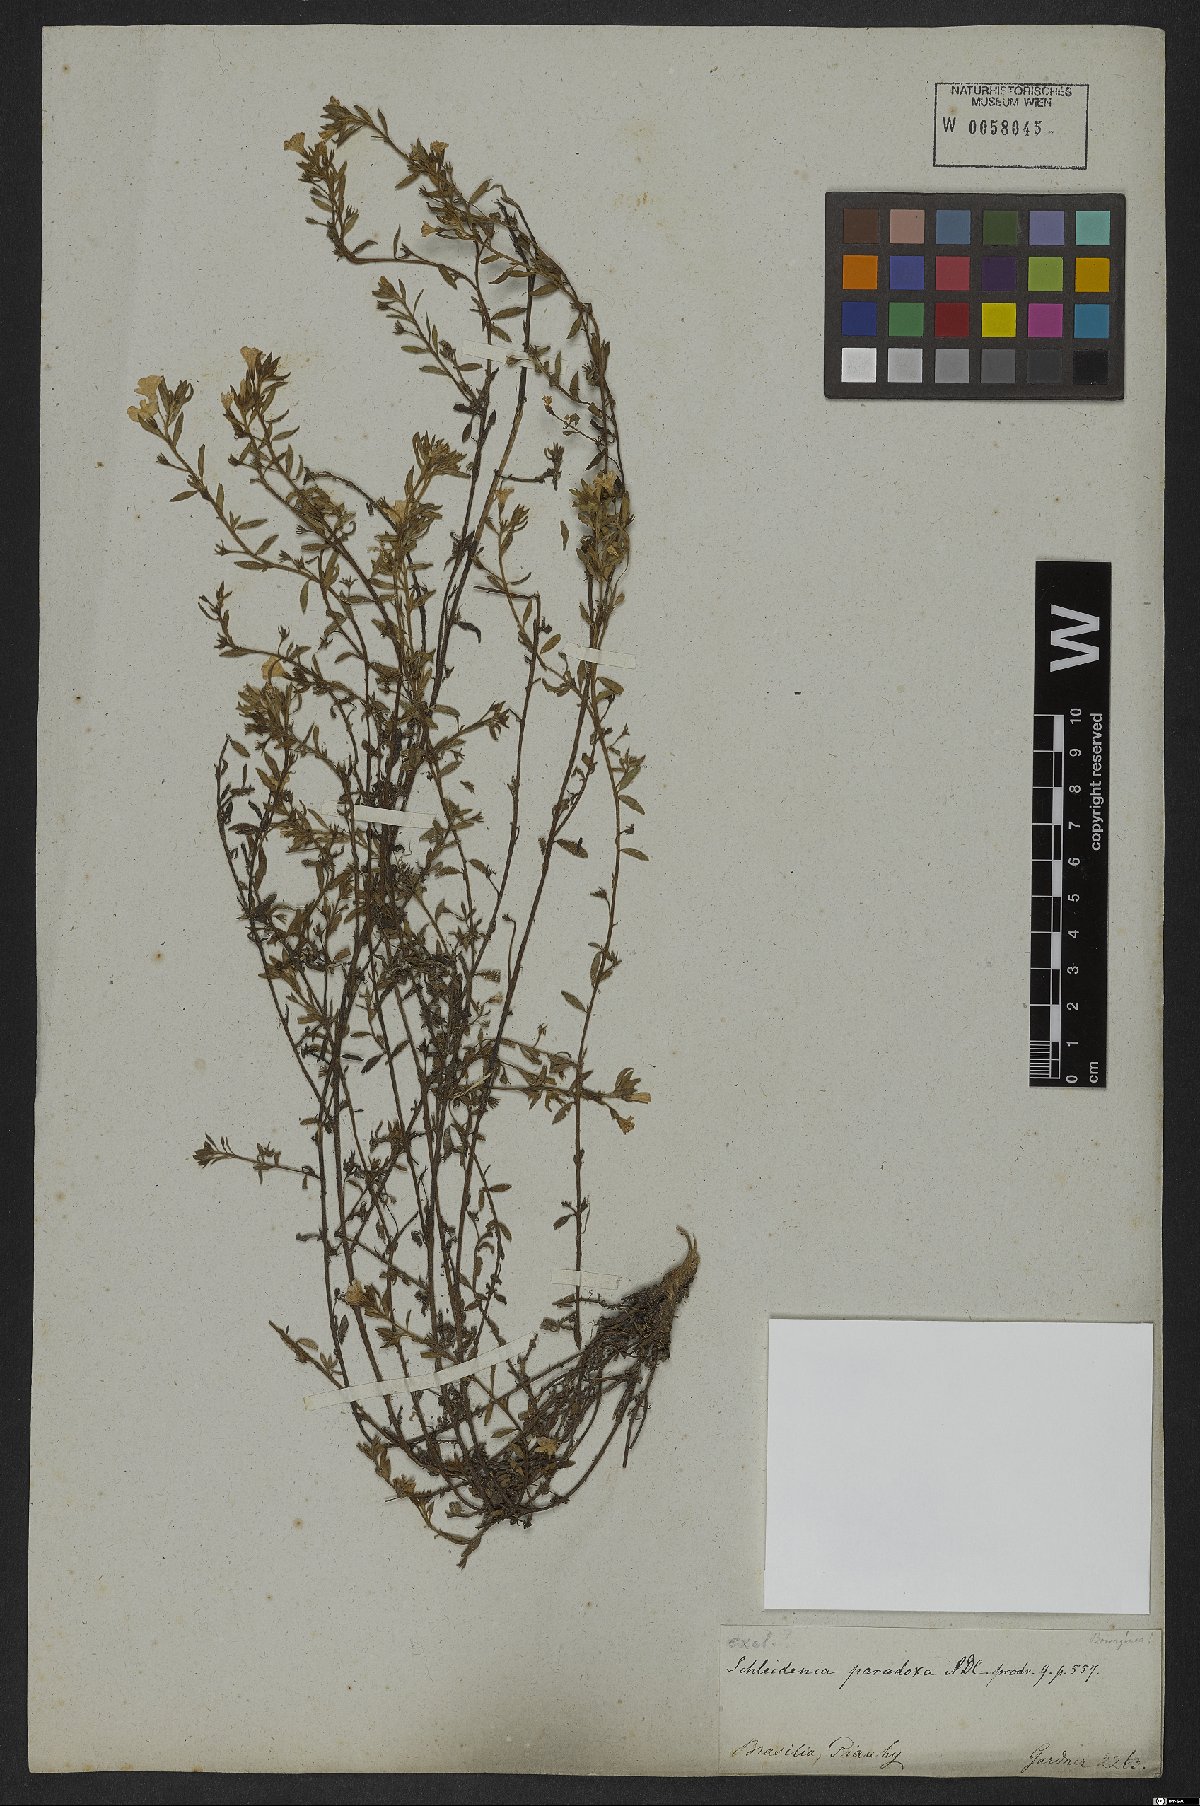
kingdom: Plantae
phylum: Tracheophyta
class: Magnoliopsida
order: Boraginales
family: Heliotropiaceae
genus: Heliotropium
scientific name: Heliotropium macrodon
